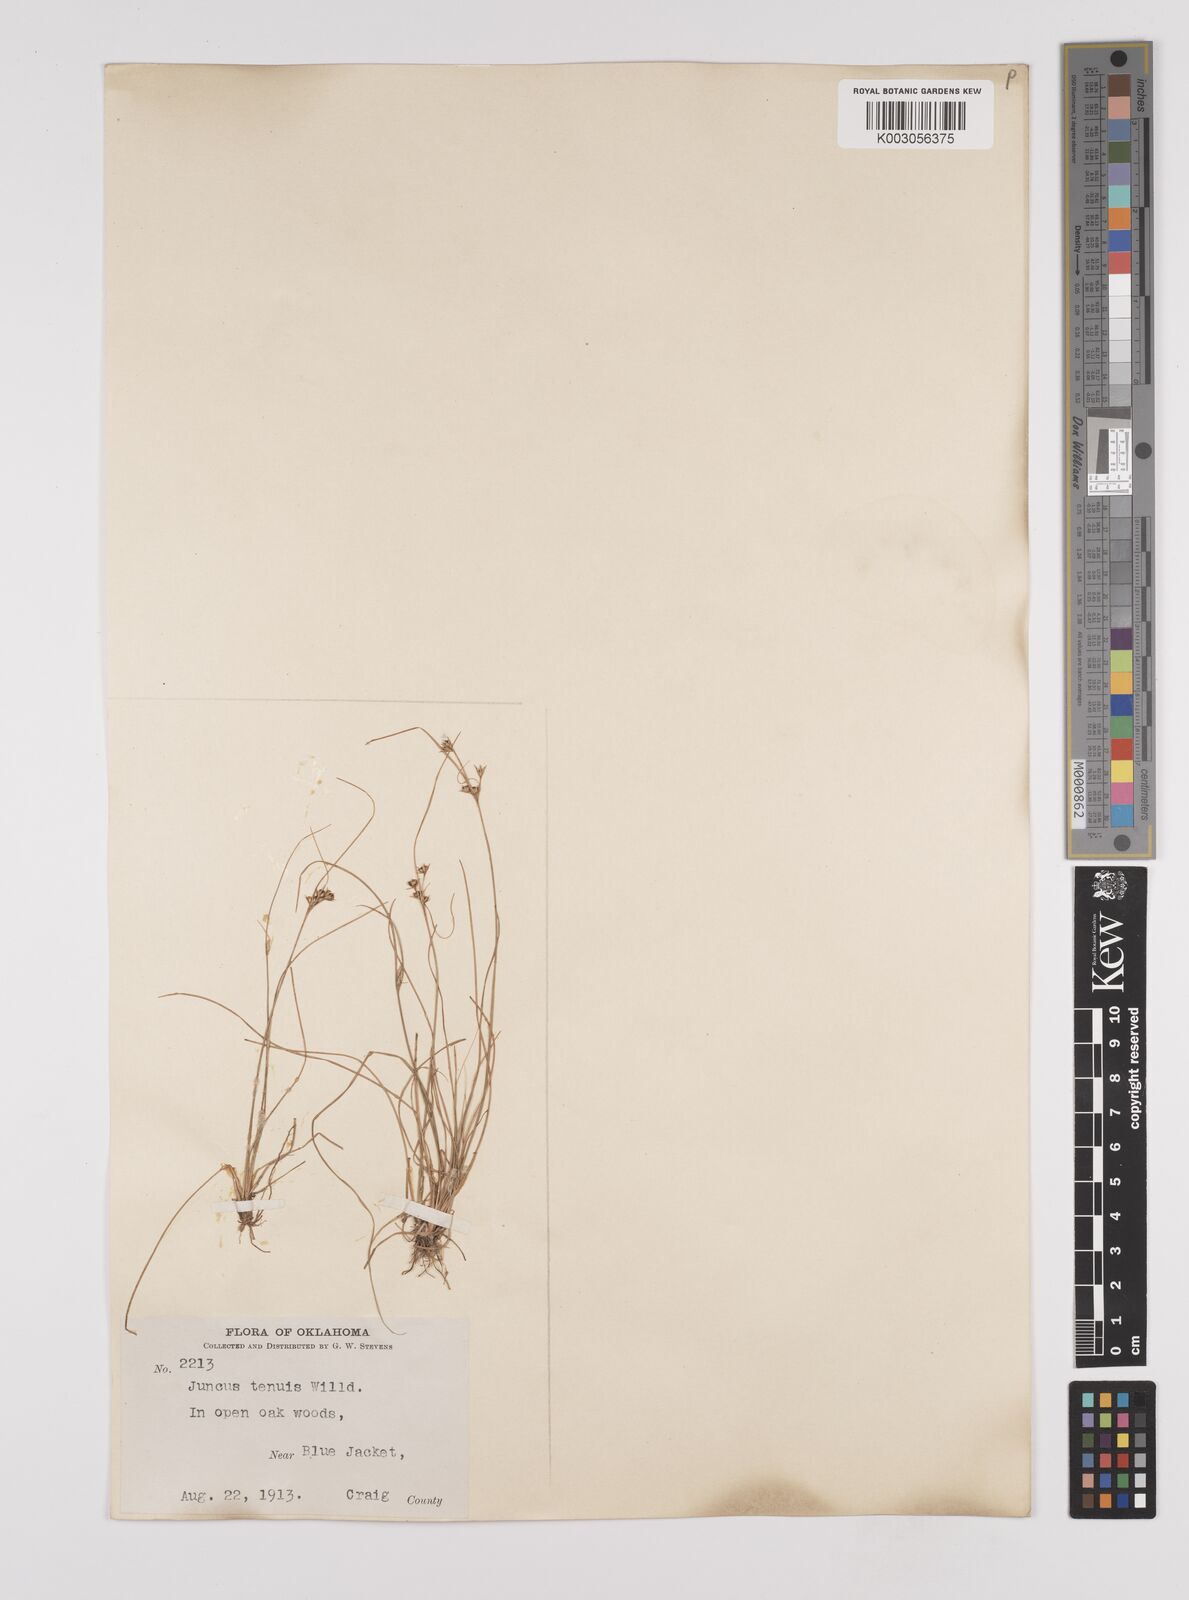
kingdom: Plantae
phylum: Tracheophyta
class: Liliopsida
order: Poales
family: Juncaceae
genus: Juncus
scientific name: Juncus tenuis
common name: Slender rush
